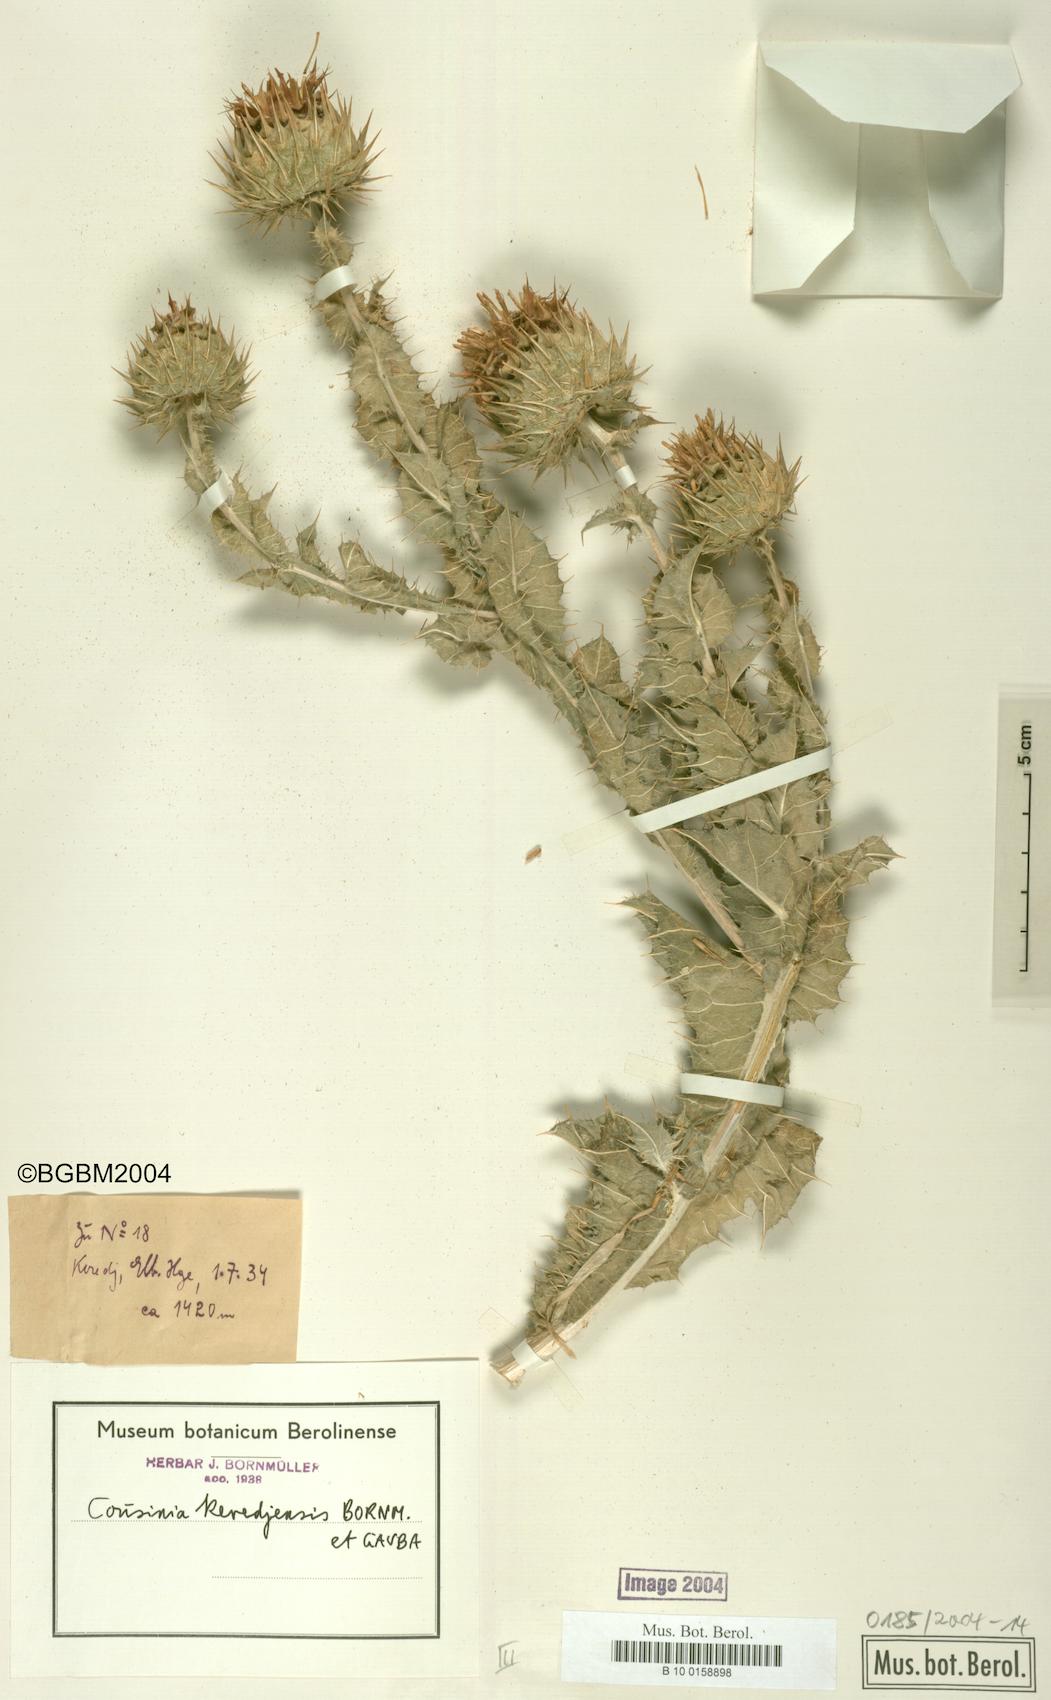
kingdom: Plantae
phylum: Tracheophyta
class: Magnoliopsida
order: Asterales
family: Asteraceae
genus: Cousinia
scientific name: Cousinia keredjensis
